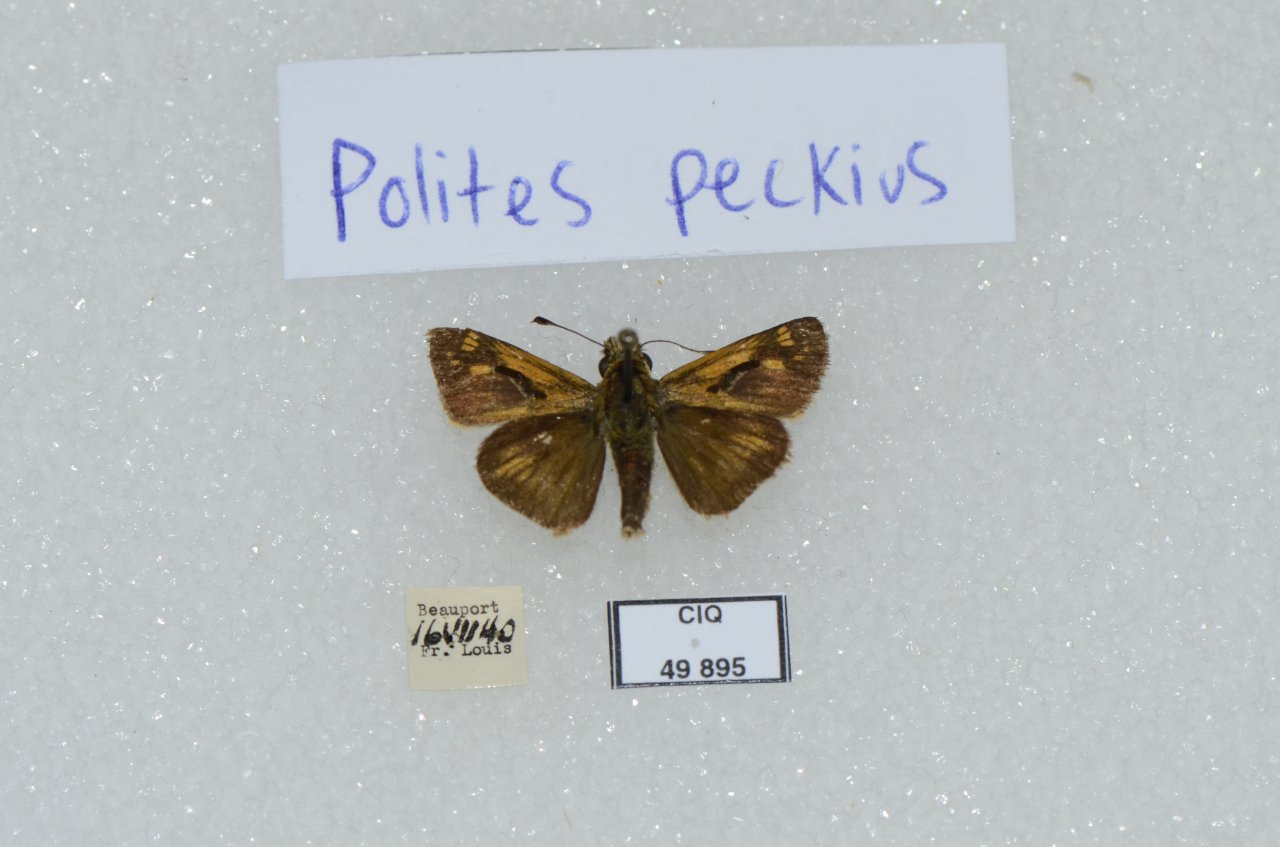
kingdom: Animalia
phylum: Arthropoda
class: Insecta
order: Lepidoptera
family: Hesperiidae
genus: Polites
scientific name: Polites coras
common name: Peck's Skipper
